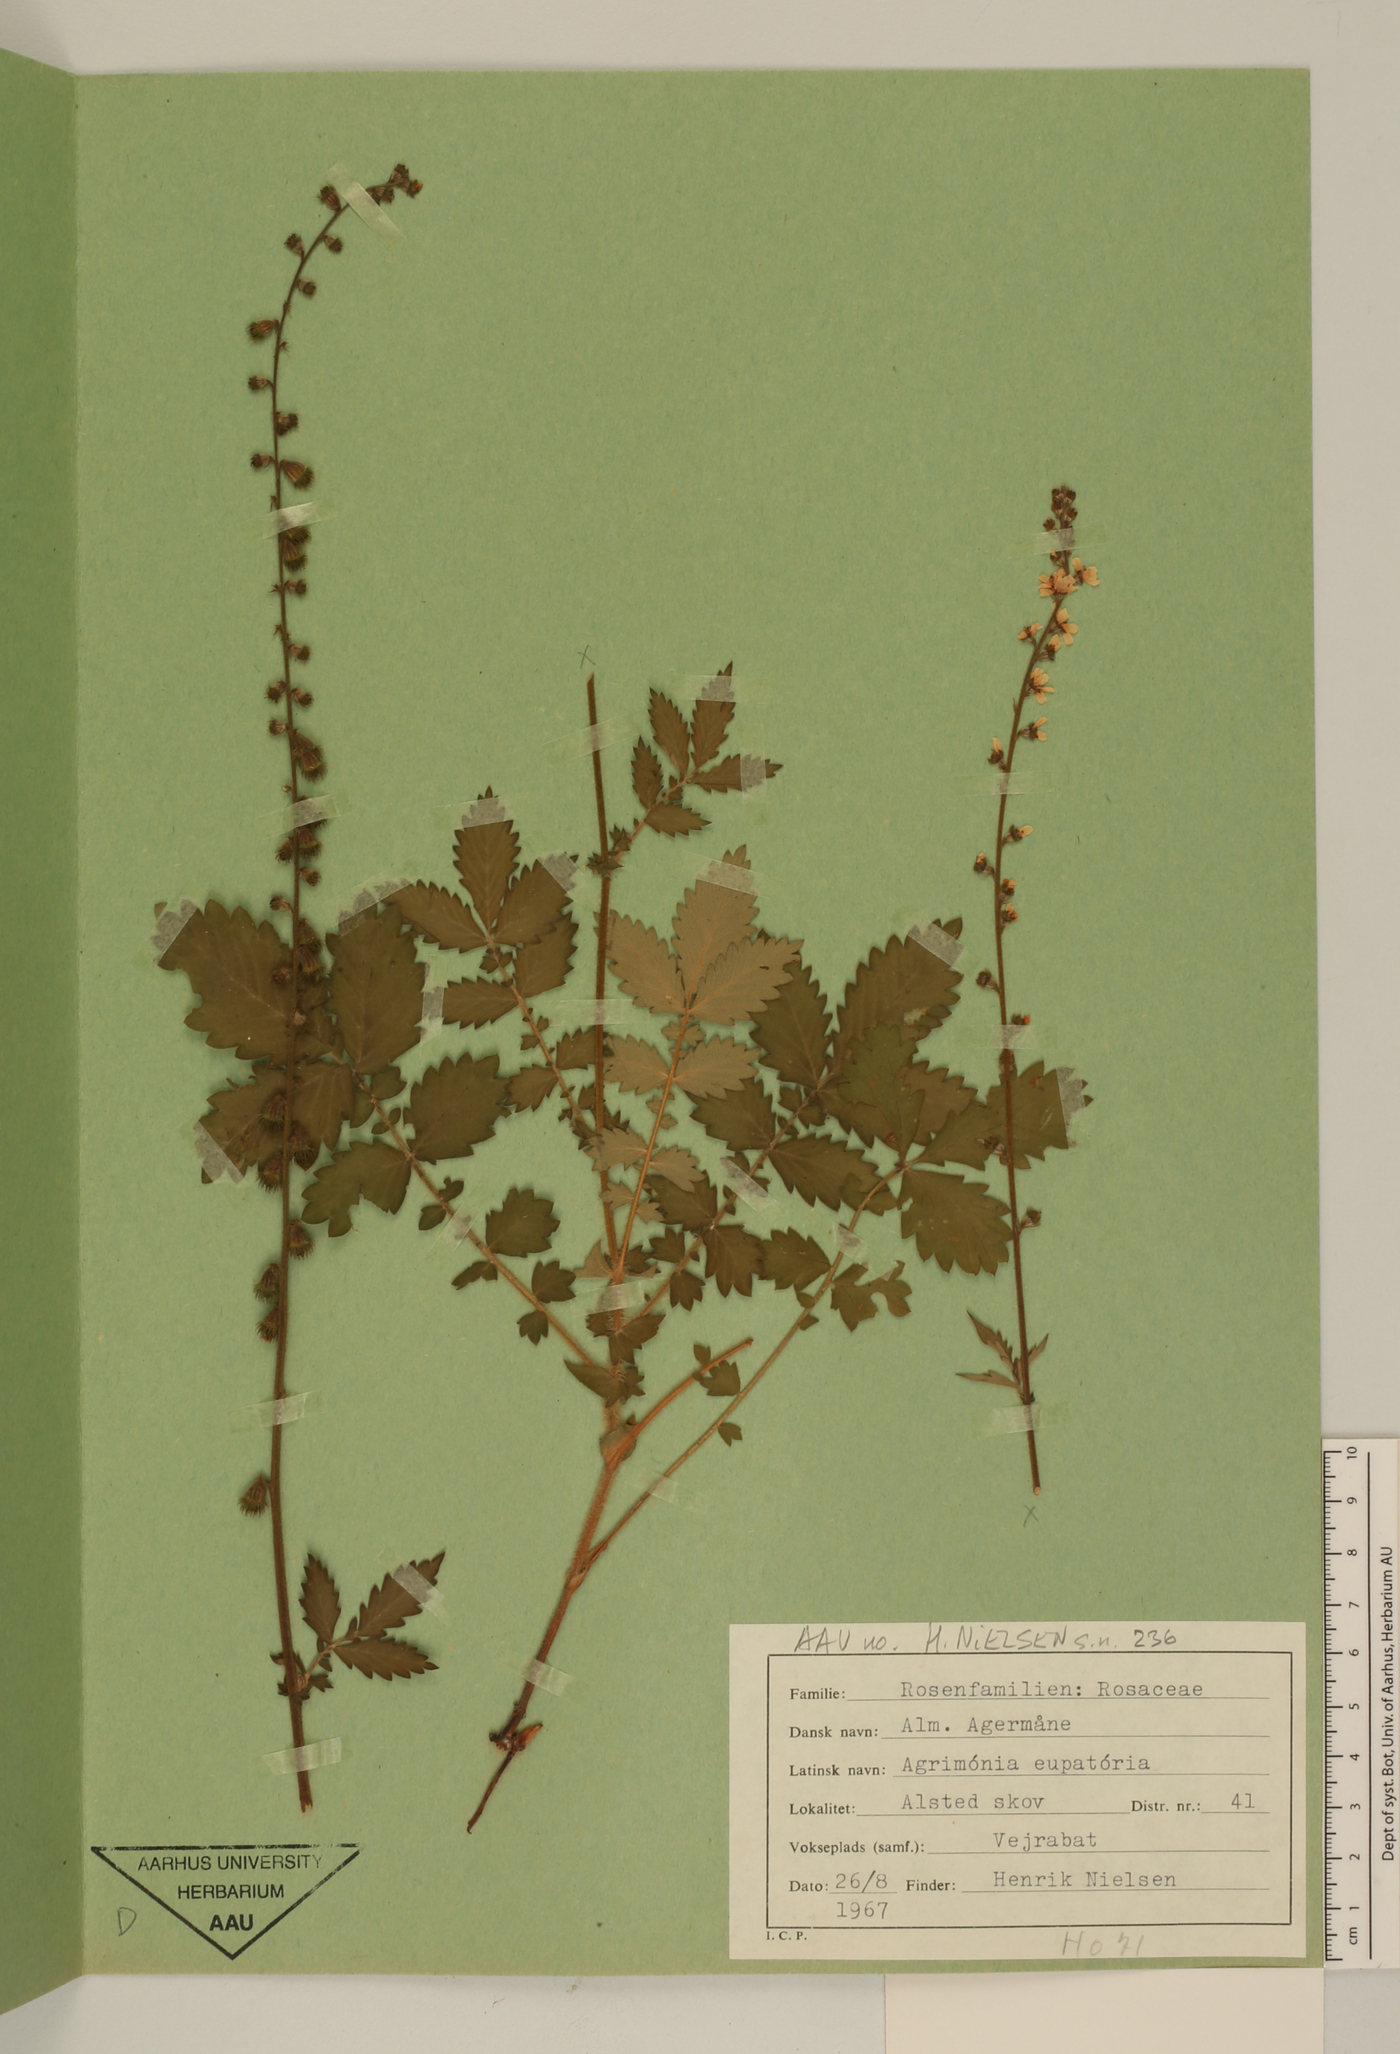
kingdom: Plantae
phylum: Tracheophyta
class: Magnoliopsida
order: Rosales
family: Rosaceae
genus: Agrimonia
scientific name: Agrimonia eupatoria
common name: Agrimony
